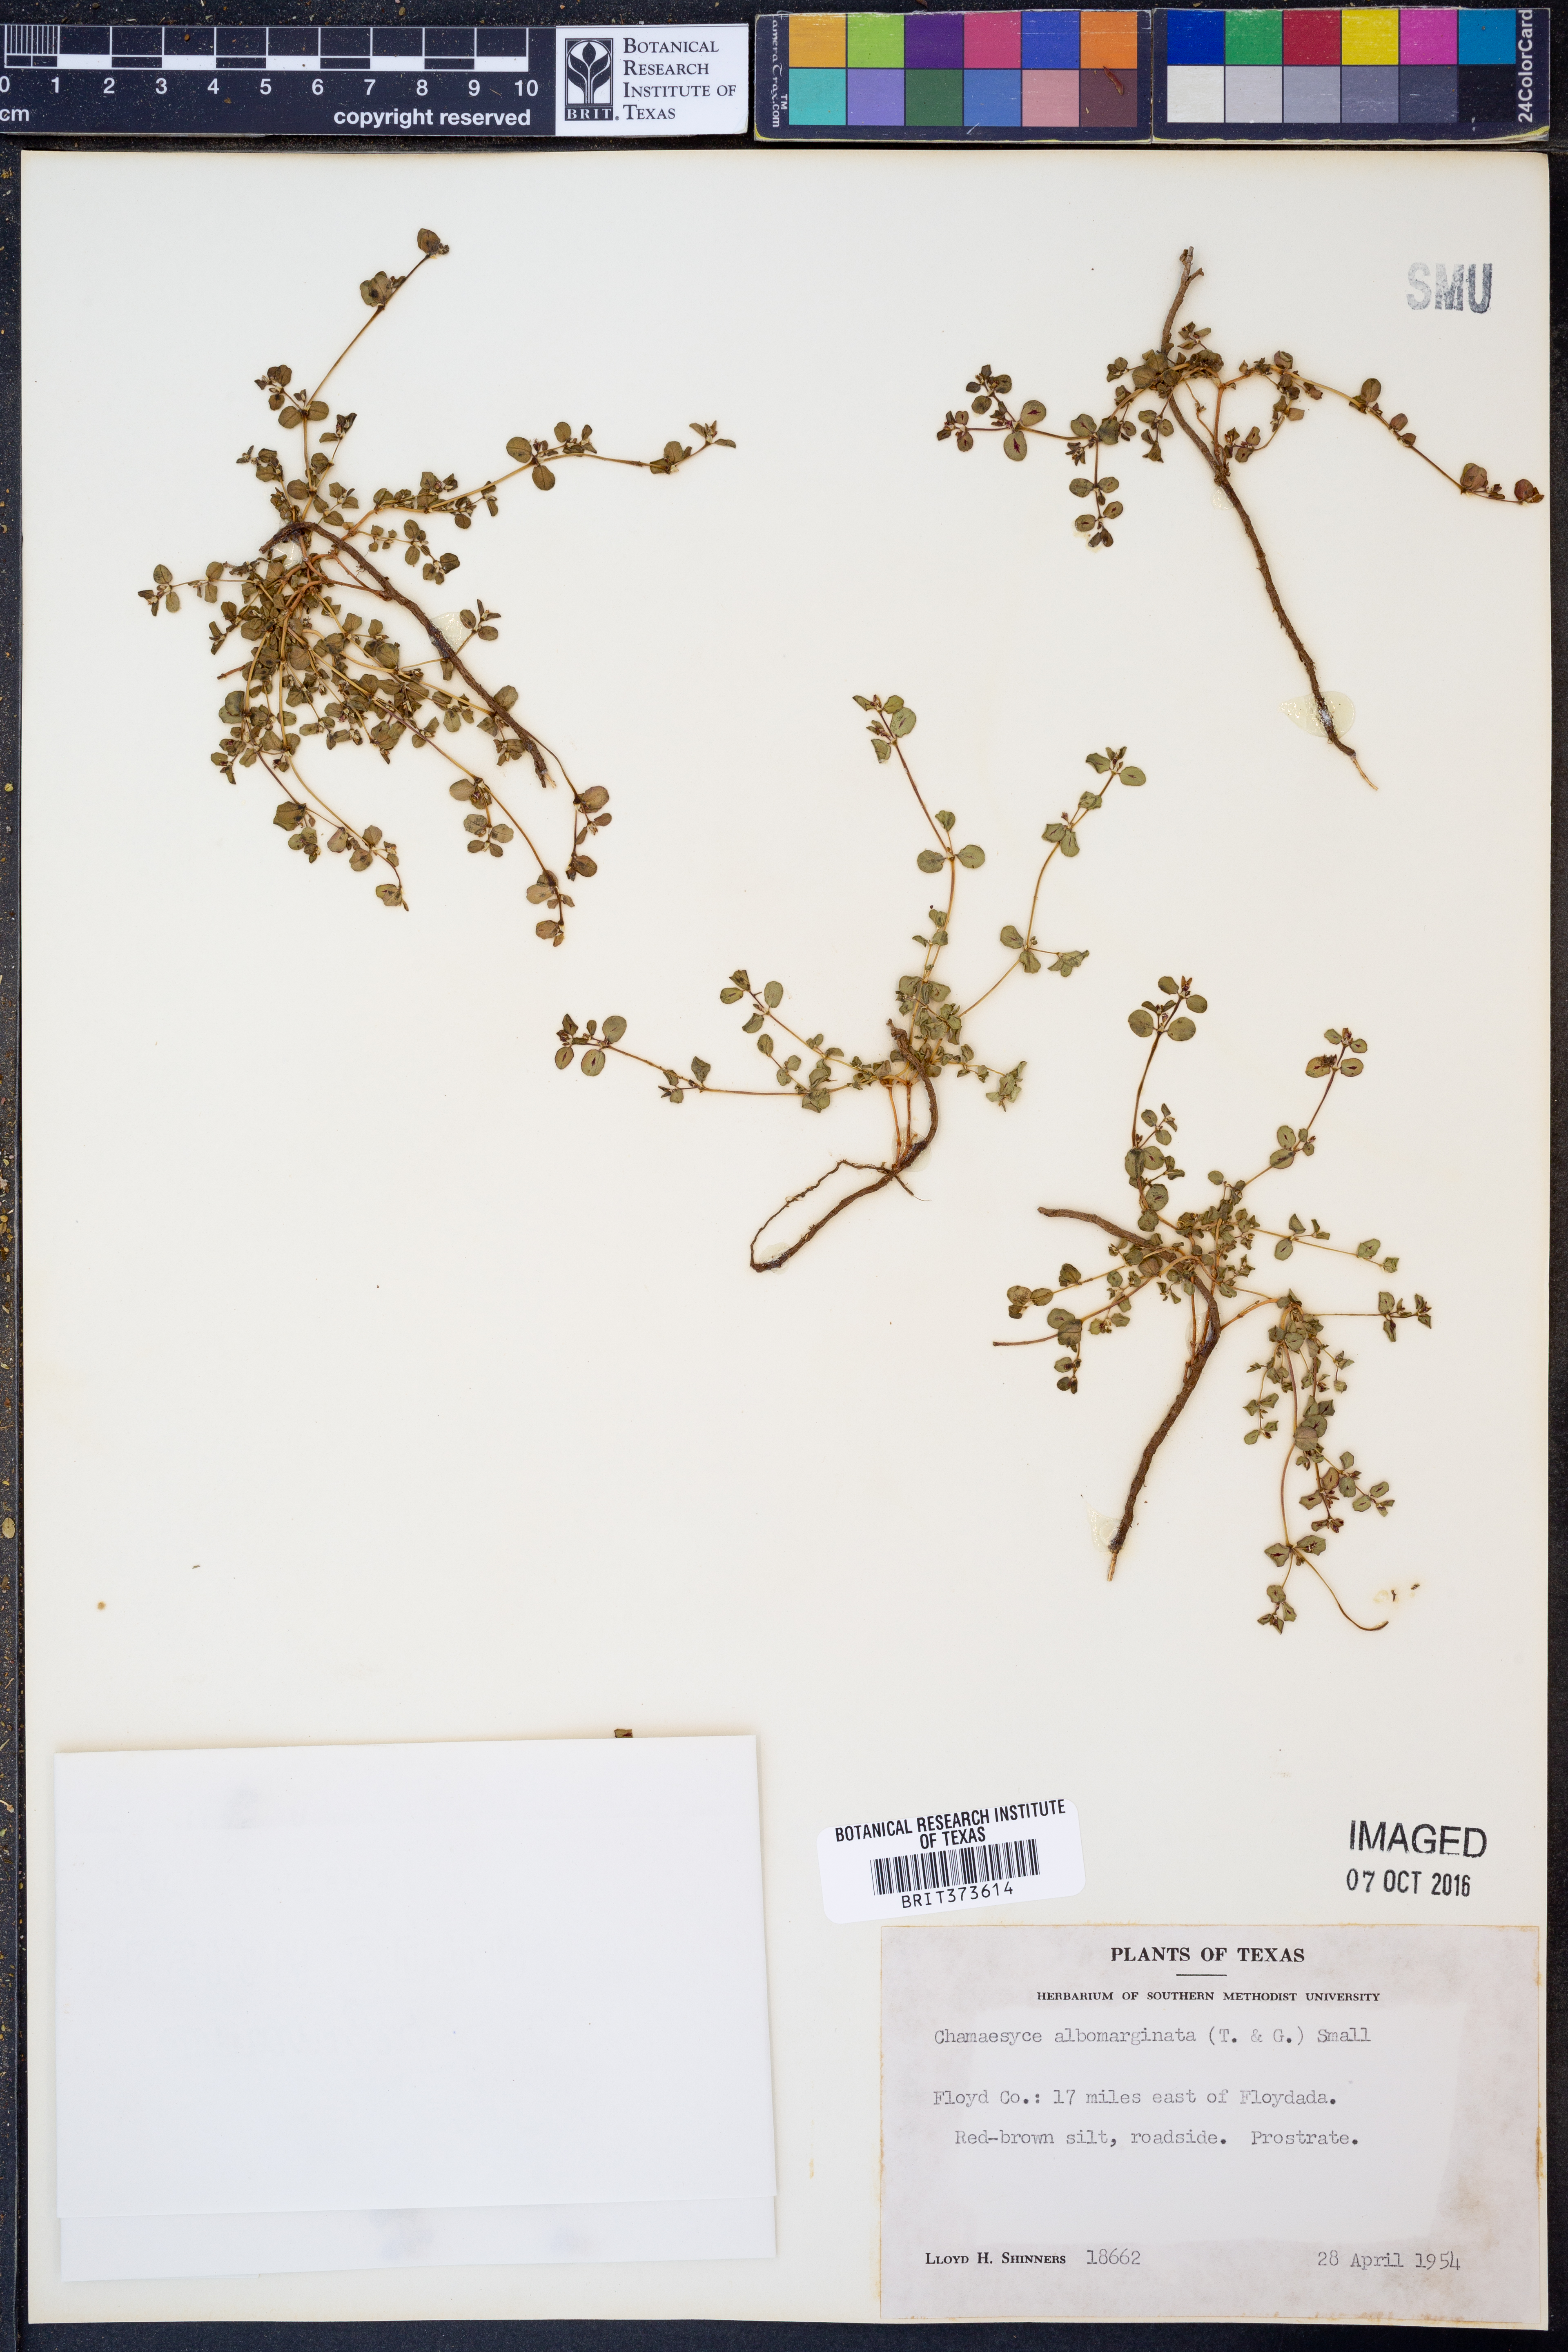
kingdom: Plantae
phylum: Tracheophyta
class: Magnoliopsida
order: Malpighiales
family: Euphorbiaceae
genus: Euphorbia
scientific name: Euphorbia albomarginata
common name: Whitemargin sandmat
